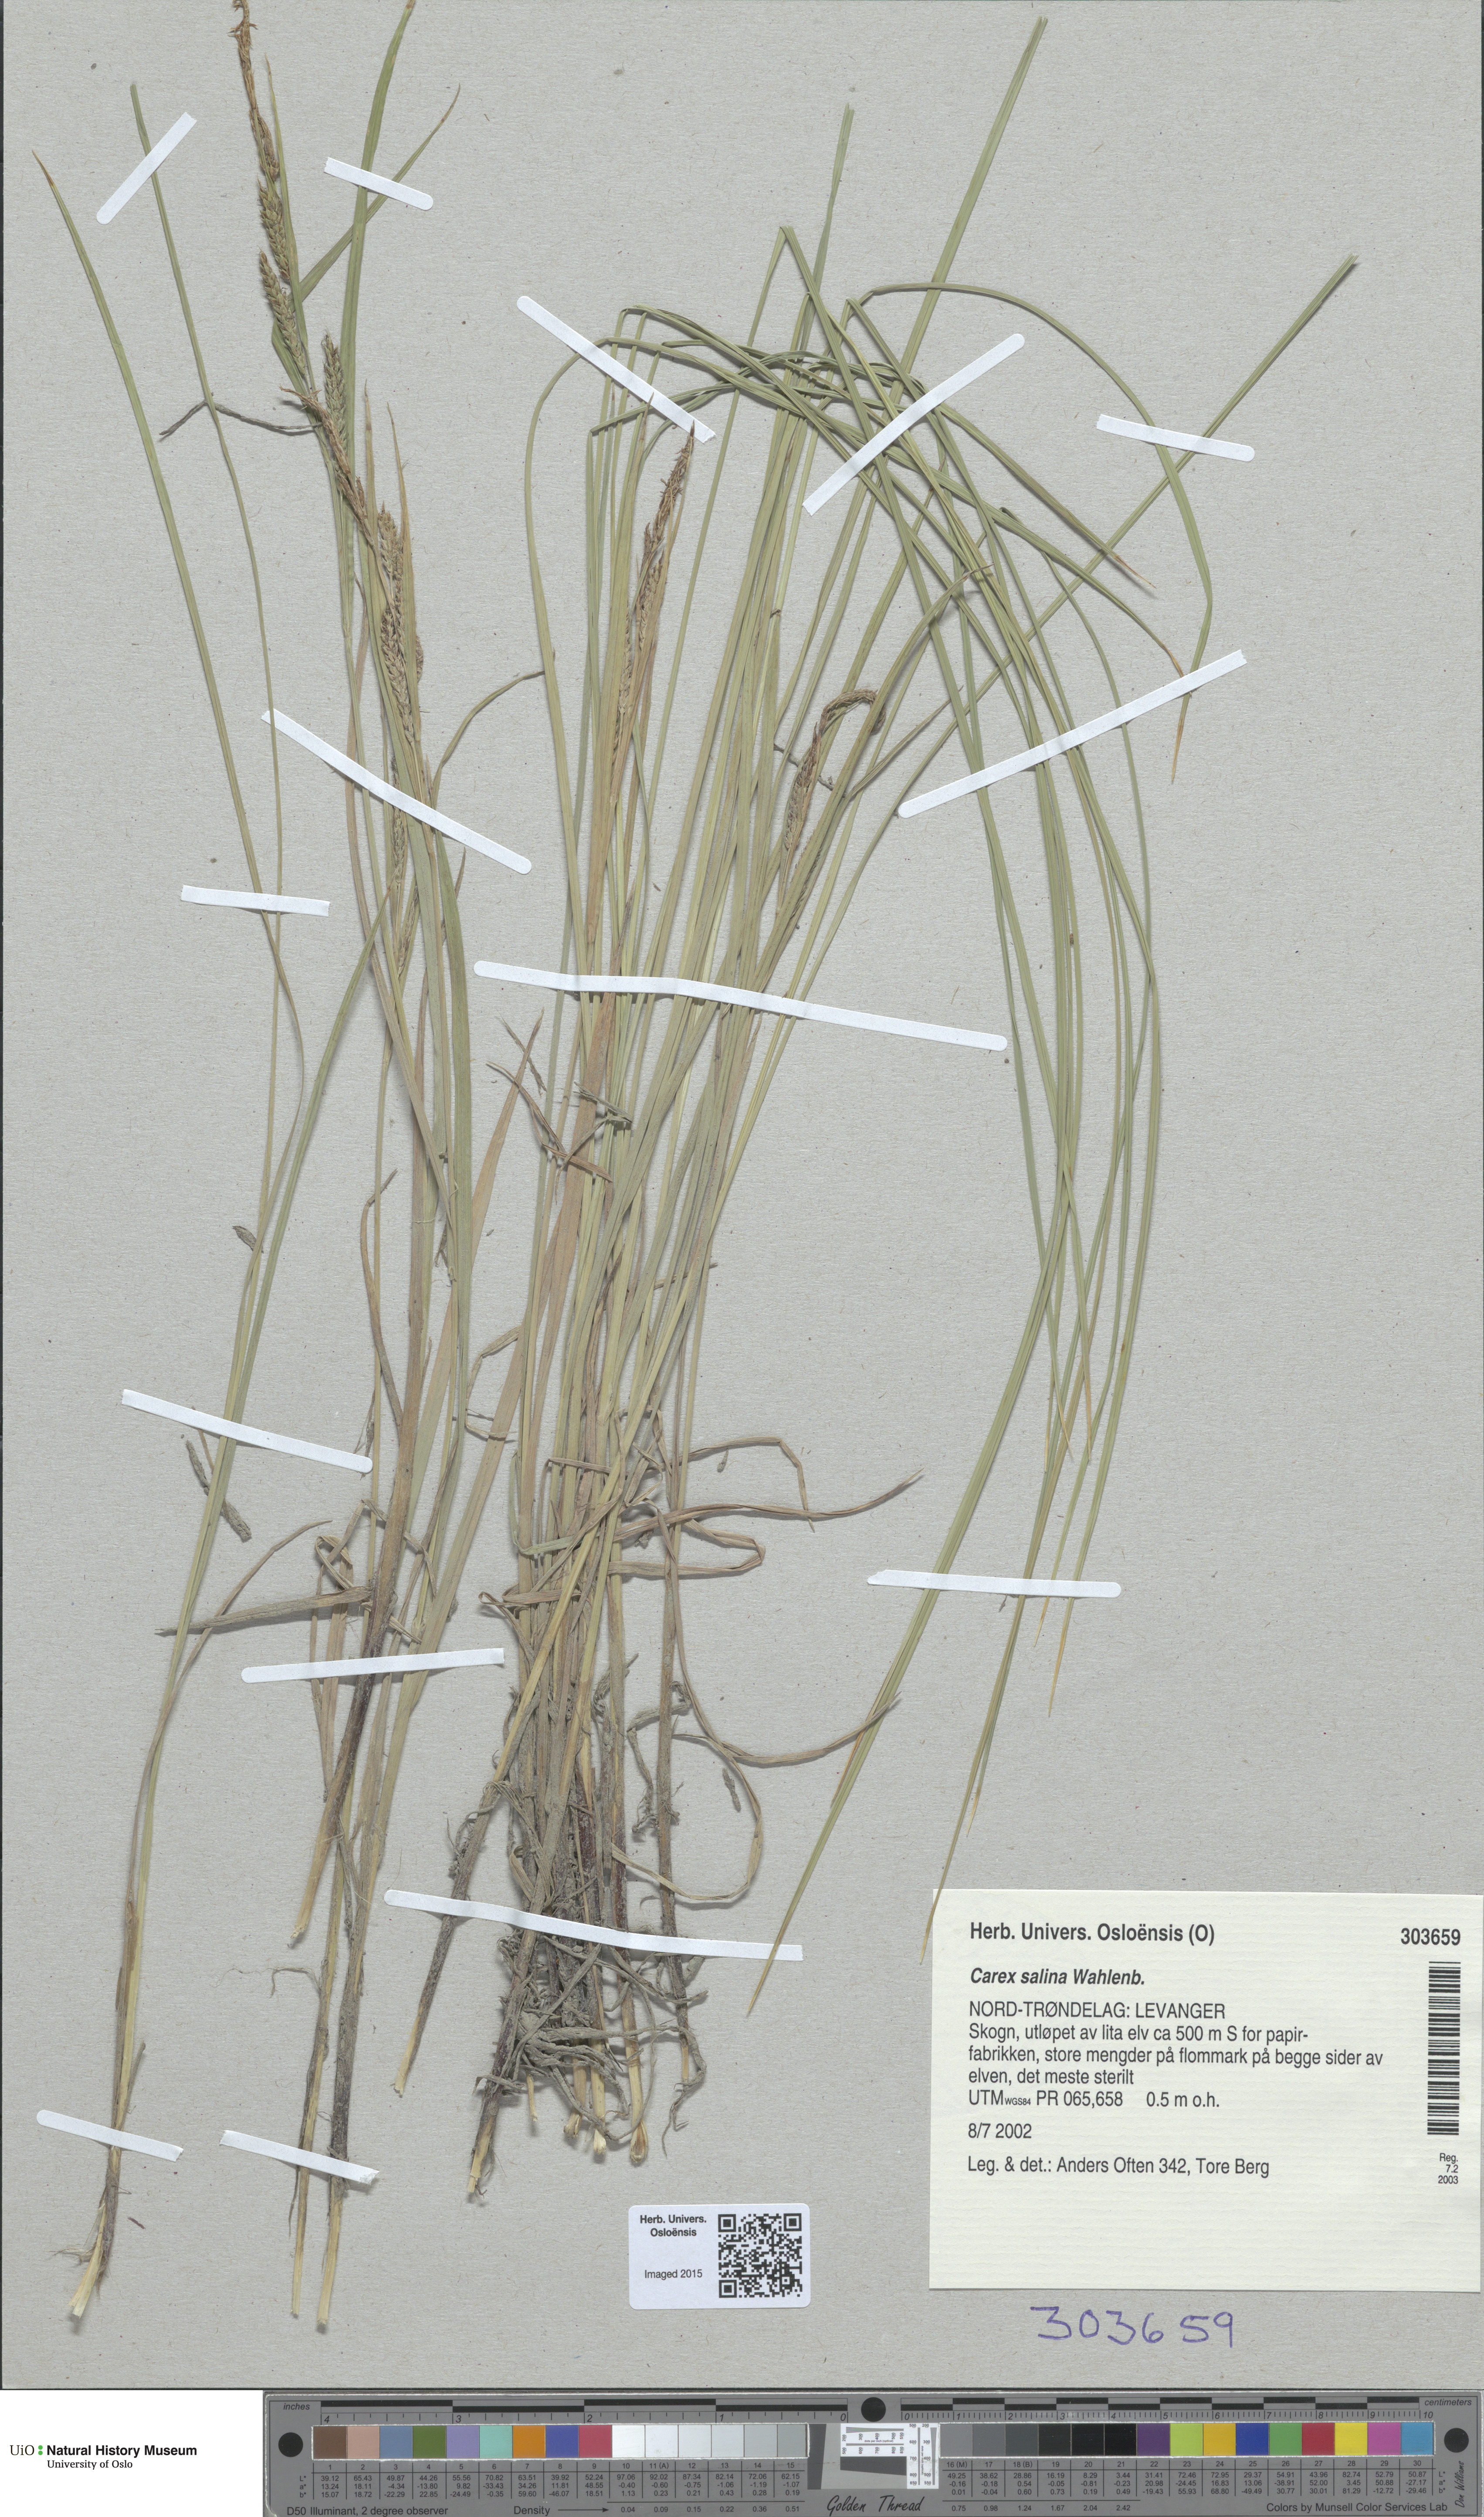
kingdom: Plantae
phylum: Tracheophyta
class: Liliopsida
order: Poales
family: Cyperaceae
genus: Carex
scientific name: Carex salina
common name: Saltmarsh sedge
